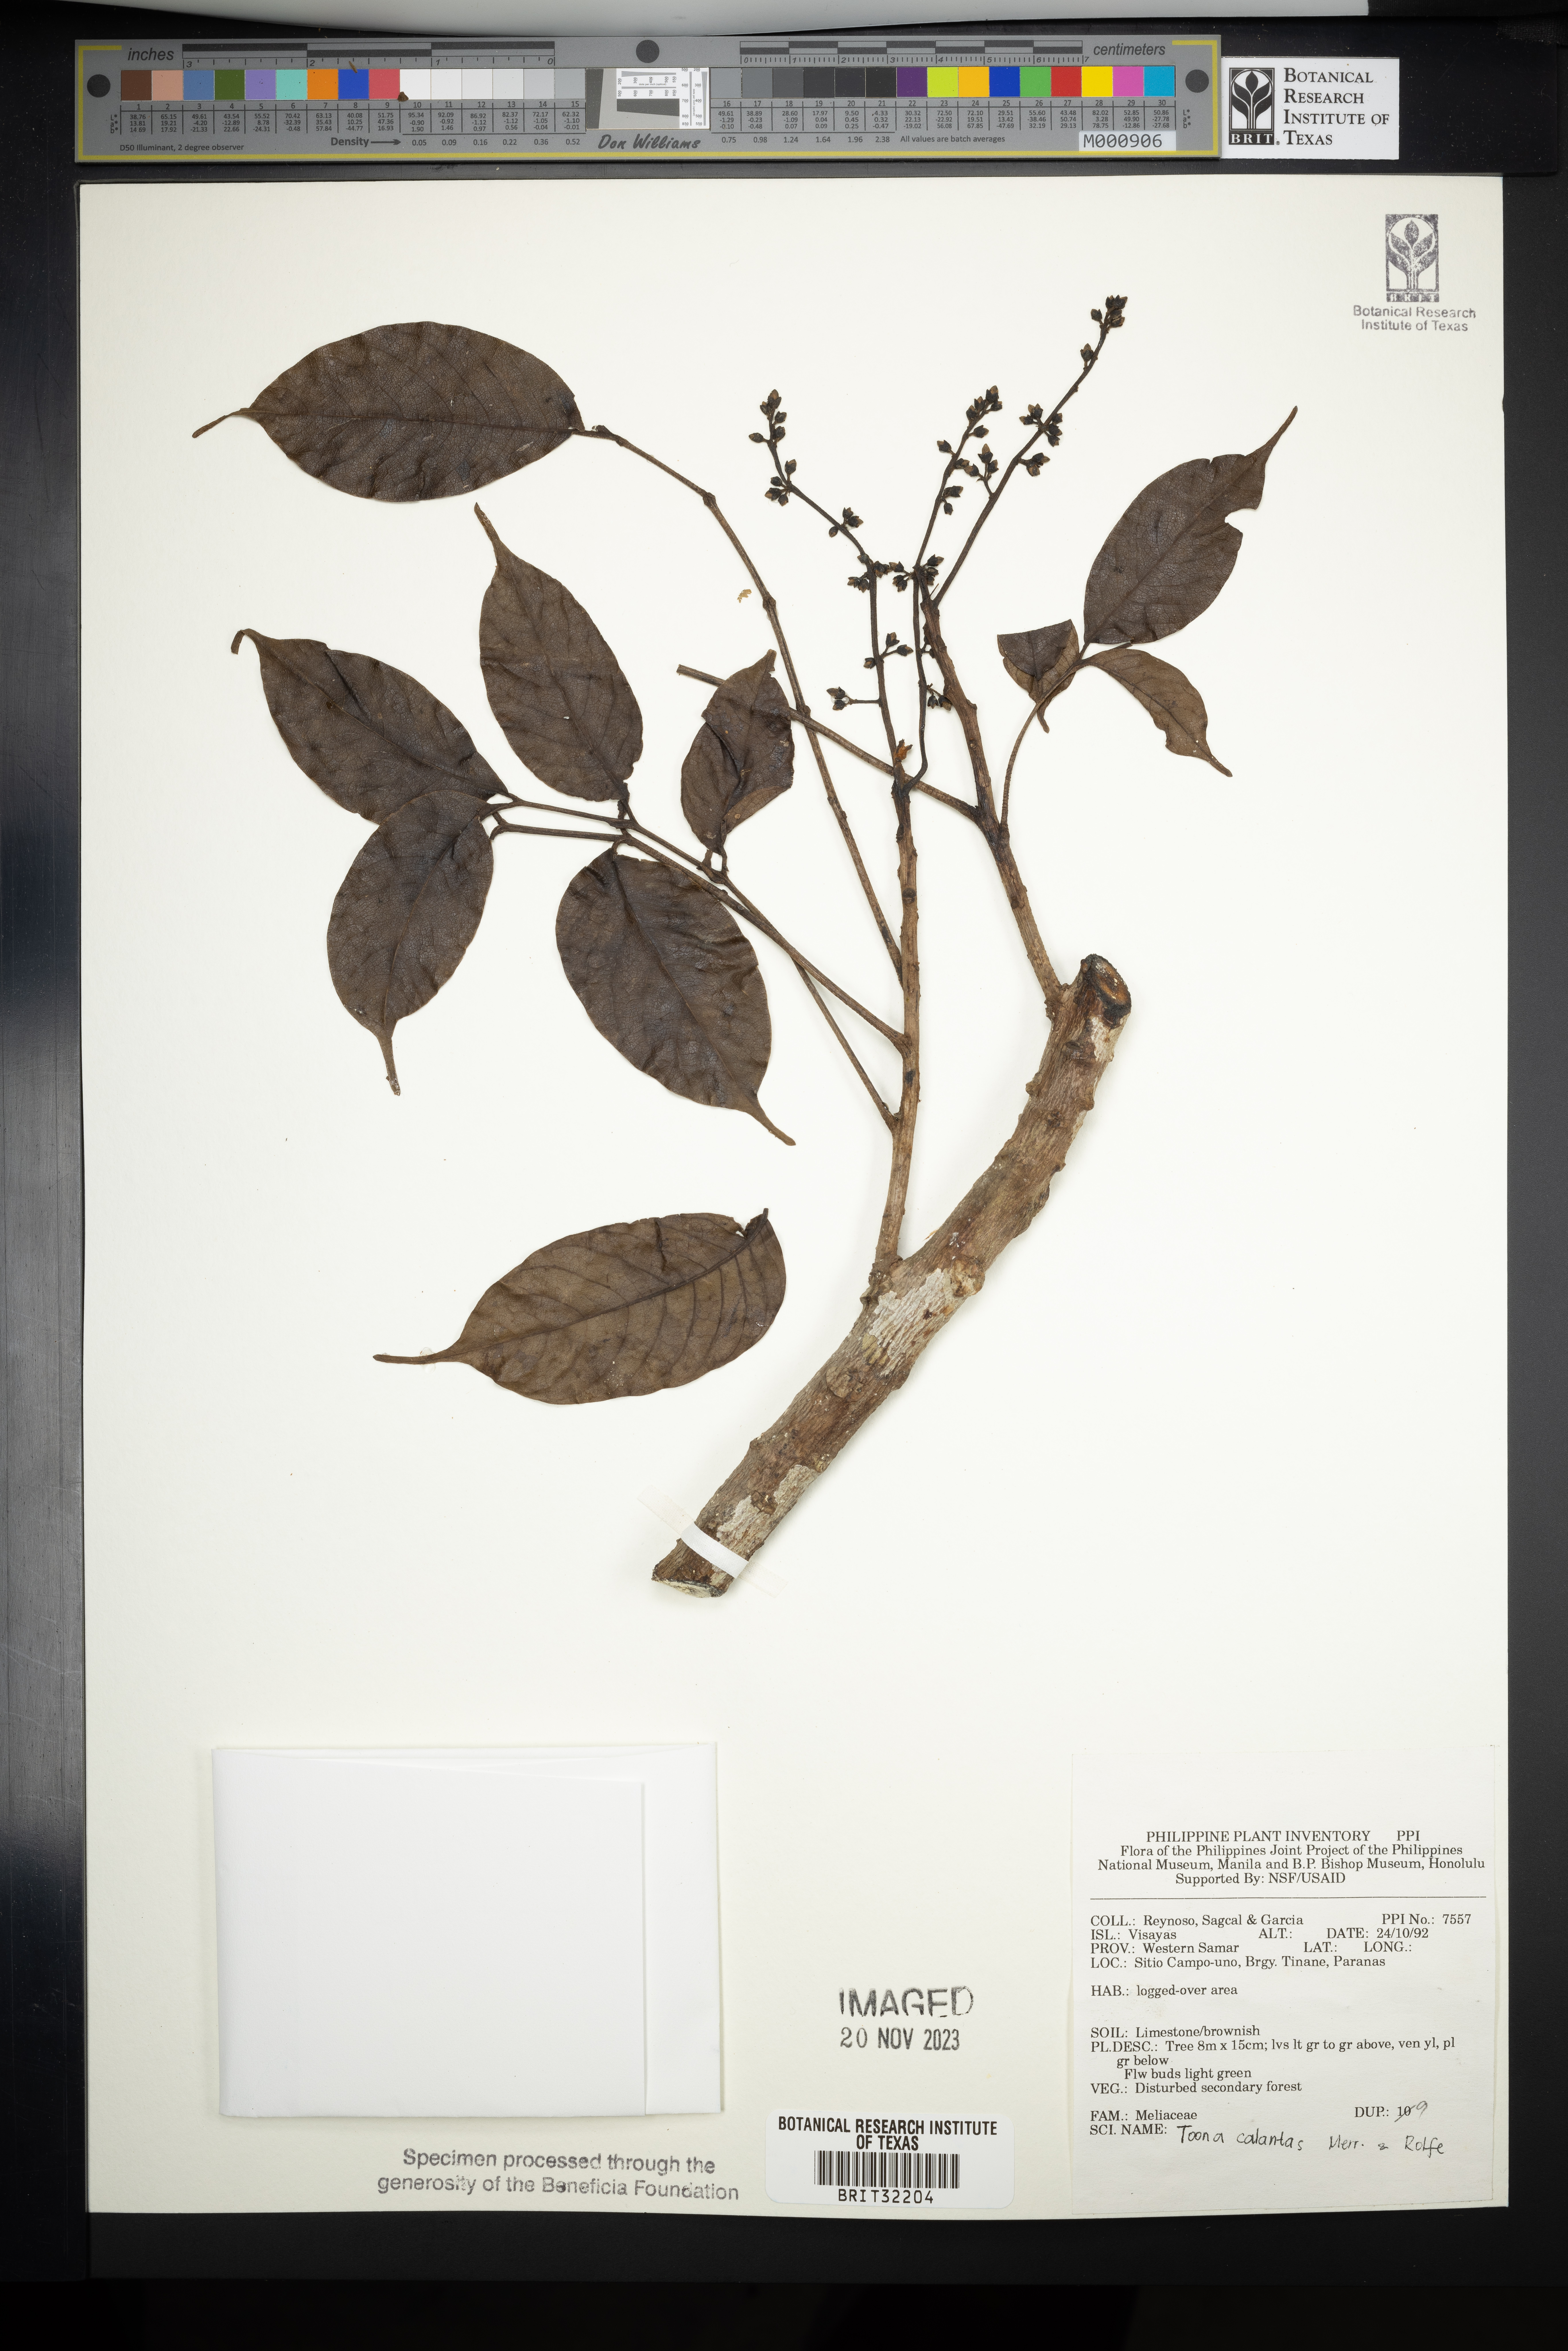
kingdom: Plantae
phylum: Tracheophyta
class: Magnoliopsida
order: Sapindales
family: Meliaceae
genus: Toona
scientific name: Toona calantas
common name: Philippine cedar
